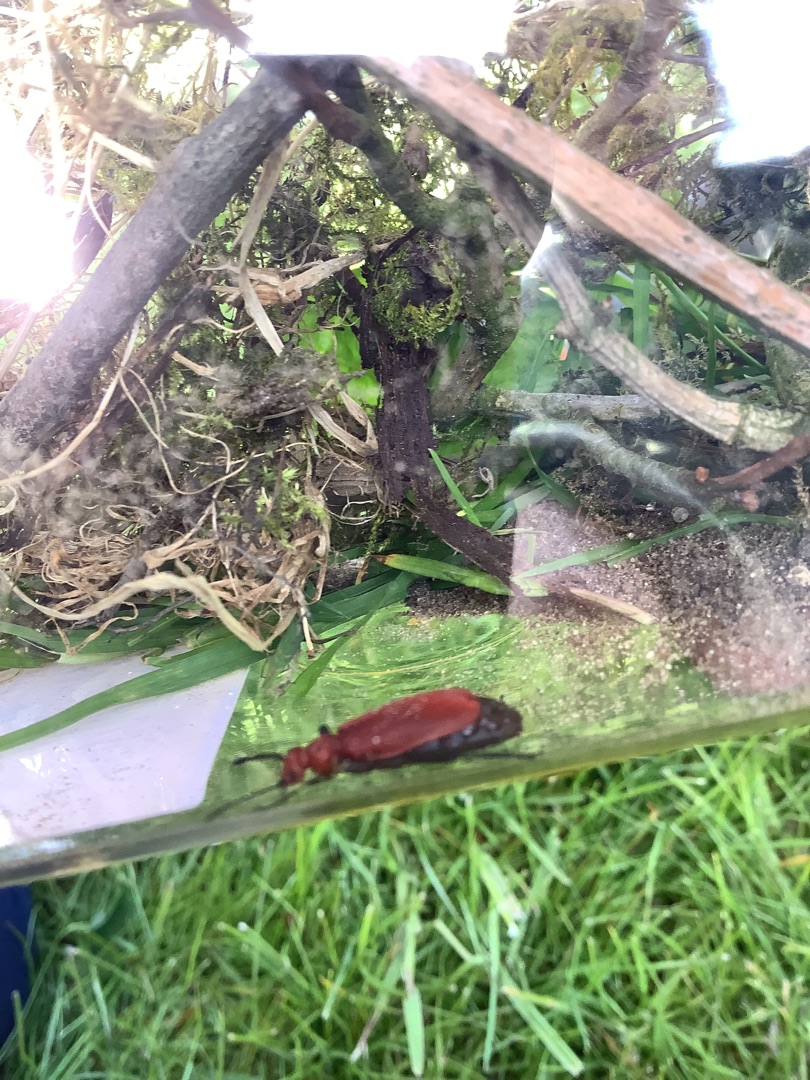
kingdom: Animalia
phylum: Arthropoda
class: Insecta
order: Coleoptera
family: Pyrochroidae
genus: Pyrochroa
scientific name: Pyrochroa serraticornis
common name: Rødhovedet kardinalbille
